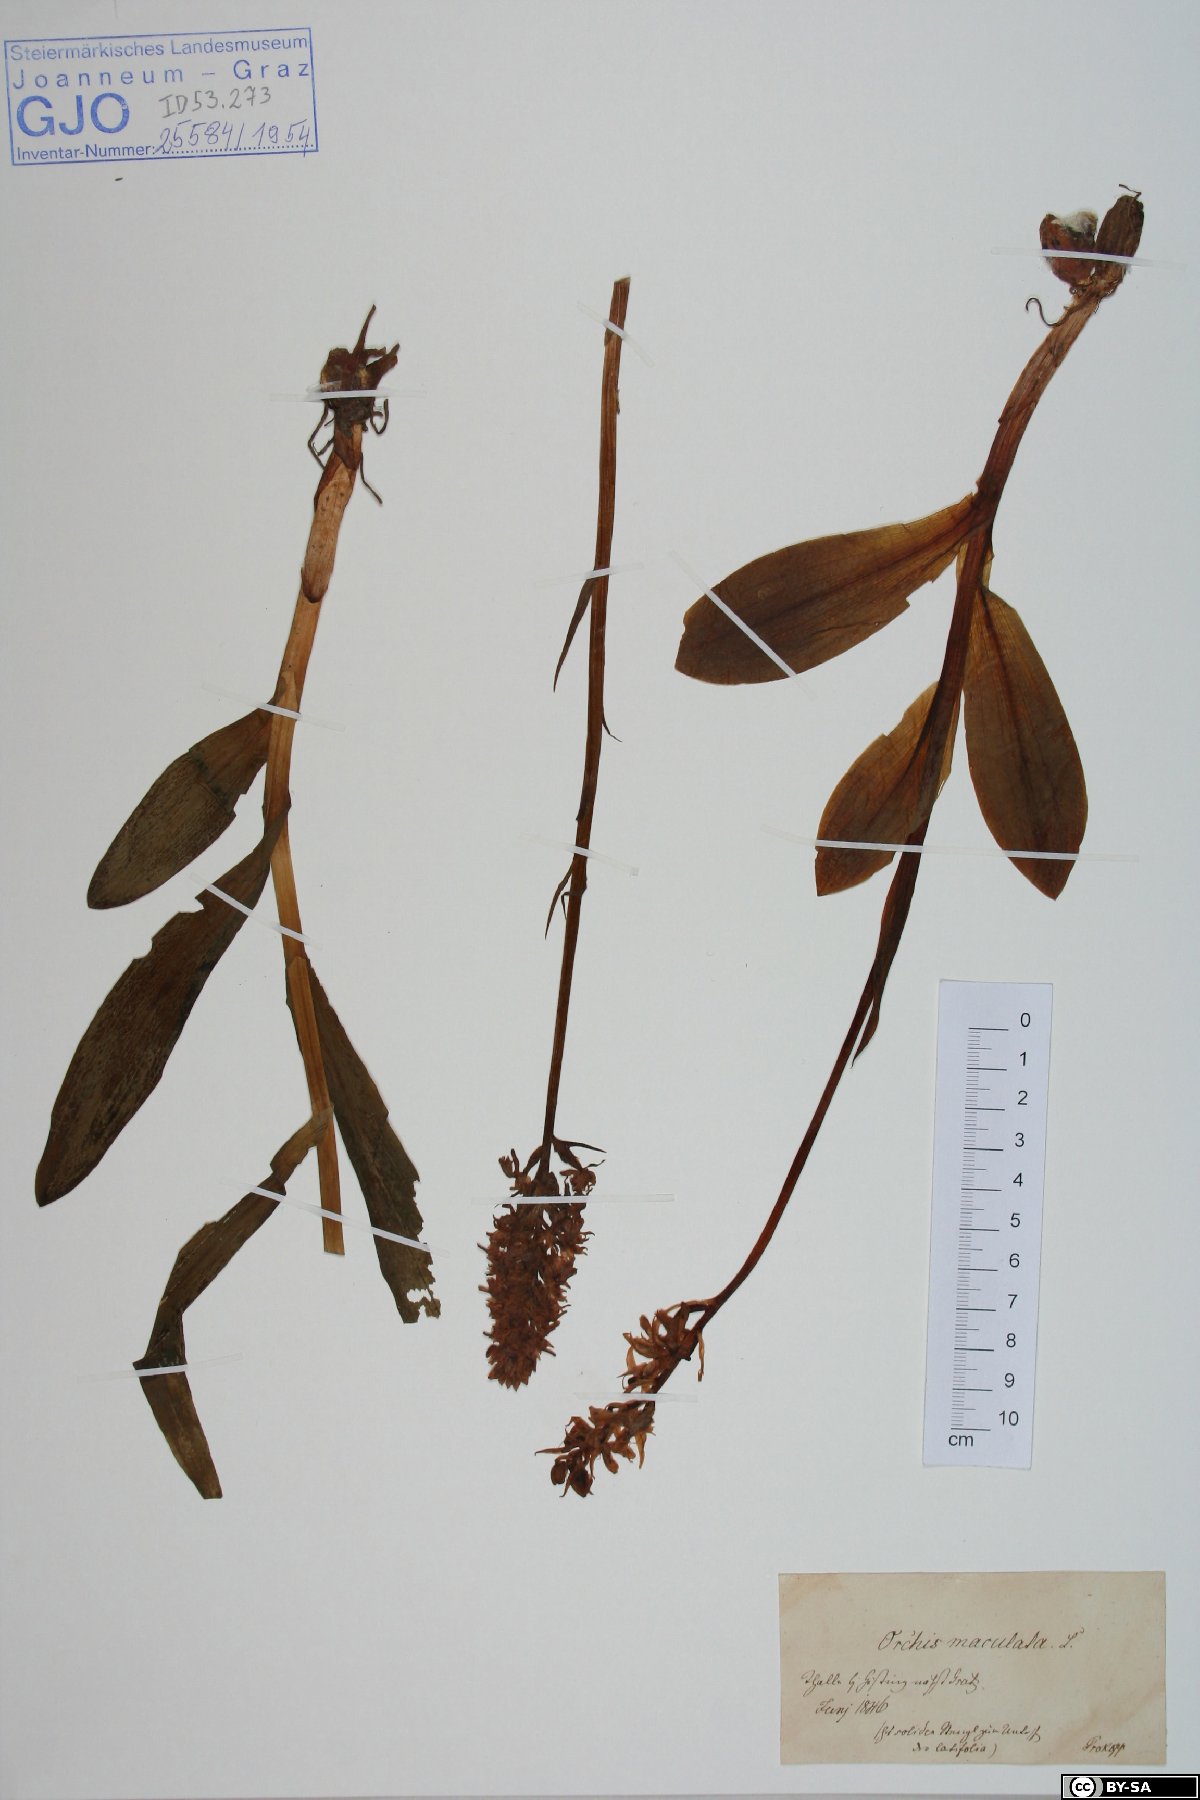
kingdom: Plantae
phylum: Tracheophyta
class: Liliopsida
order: Asparagales
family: Orchidaceae
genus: Dactylorhiza
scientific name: Dactylorhiza maculata
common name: Heath spotted-orchid
